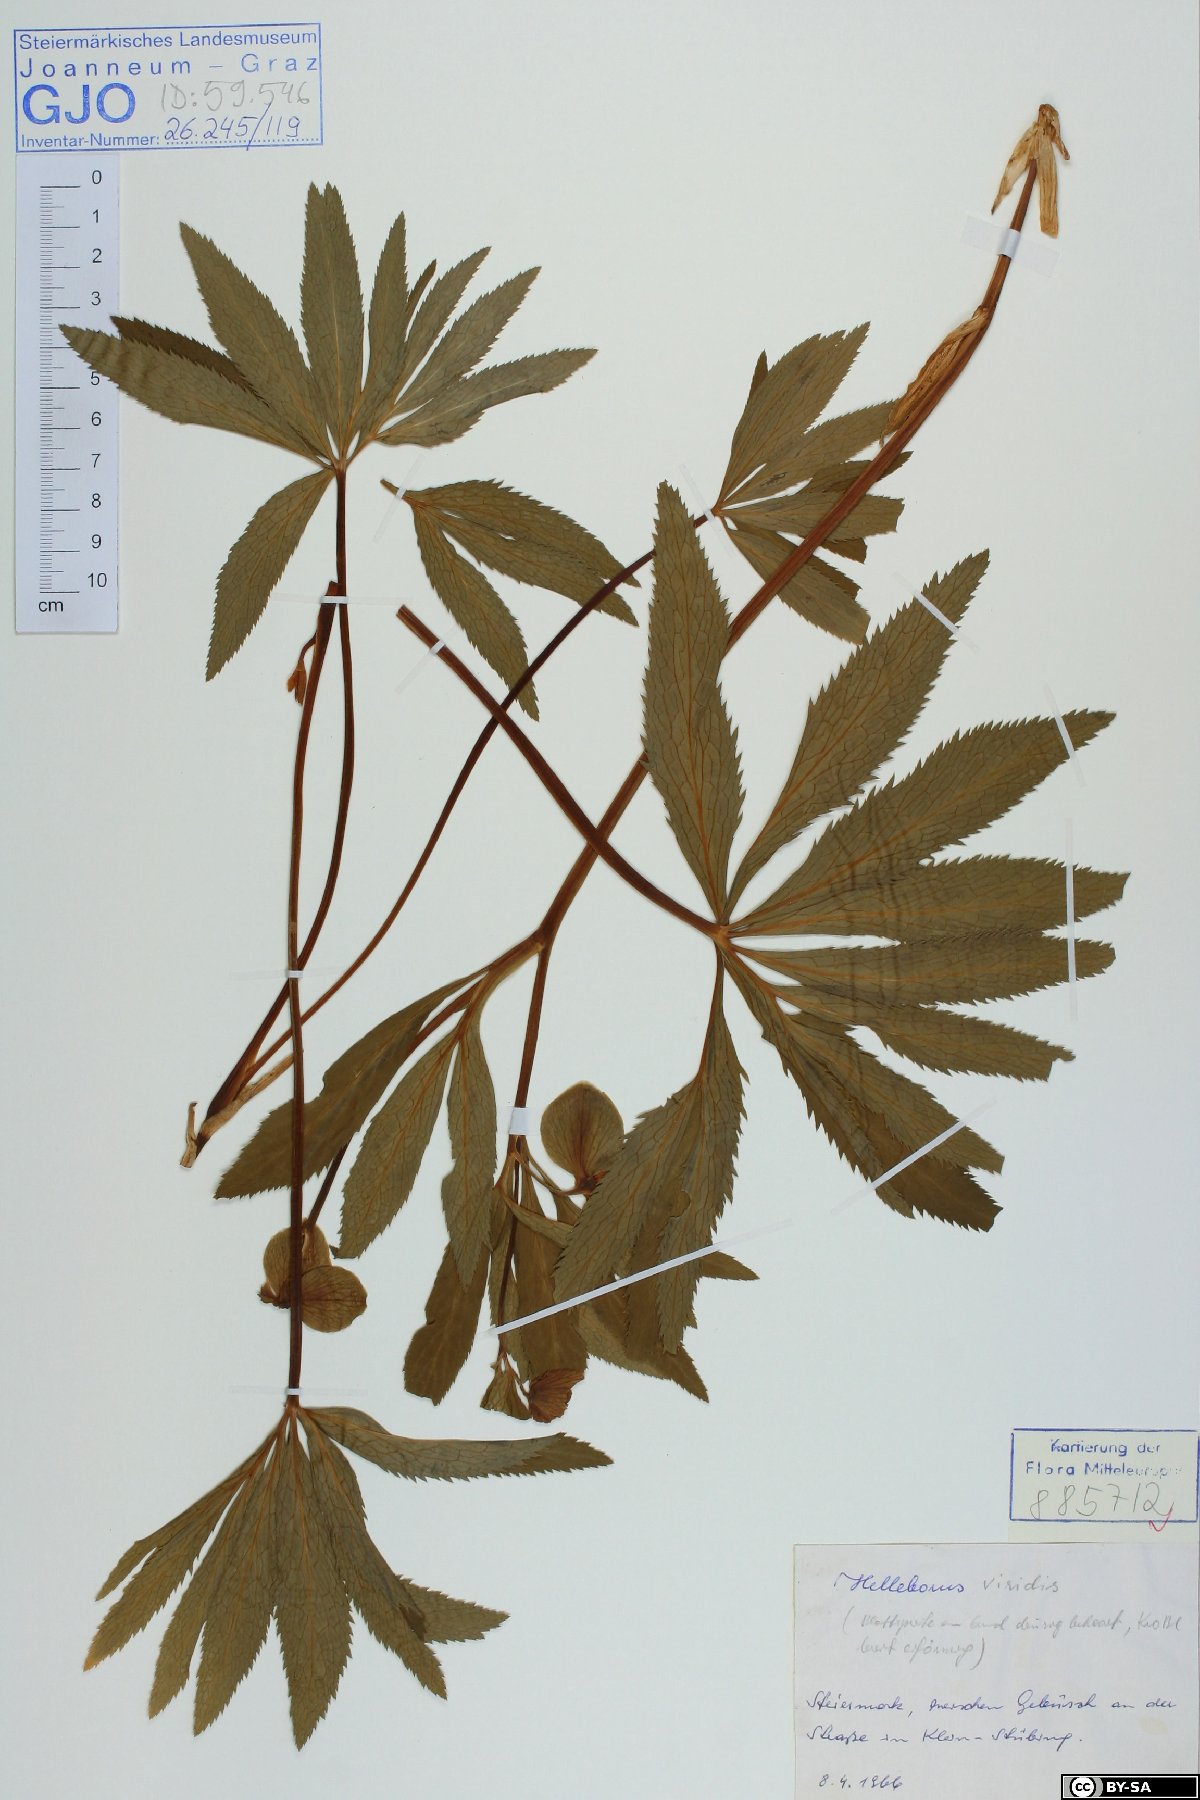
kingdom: Plantae
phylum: Tracheophyta
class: Magnoliopsida
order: Ranunculales
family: Ranunculaceae
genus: Helleborus
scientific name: Helleborus dumetorum
